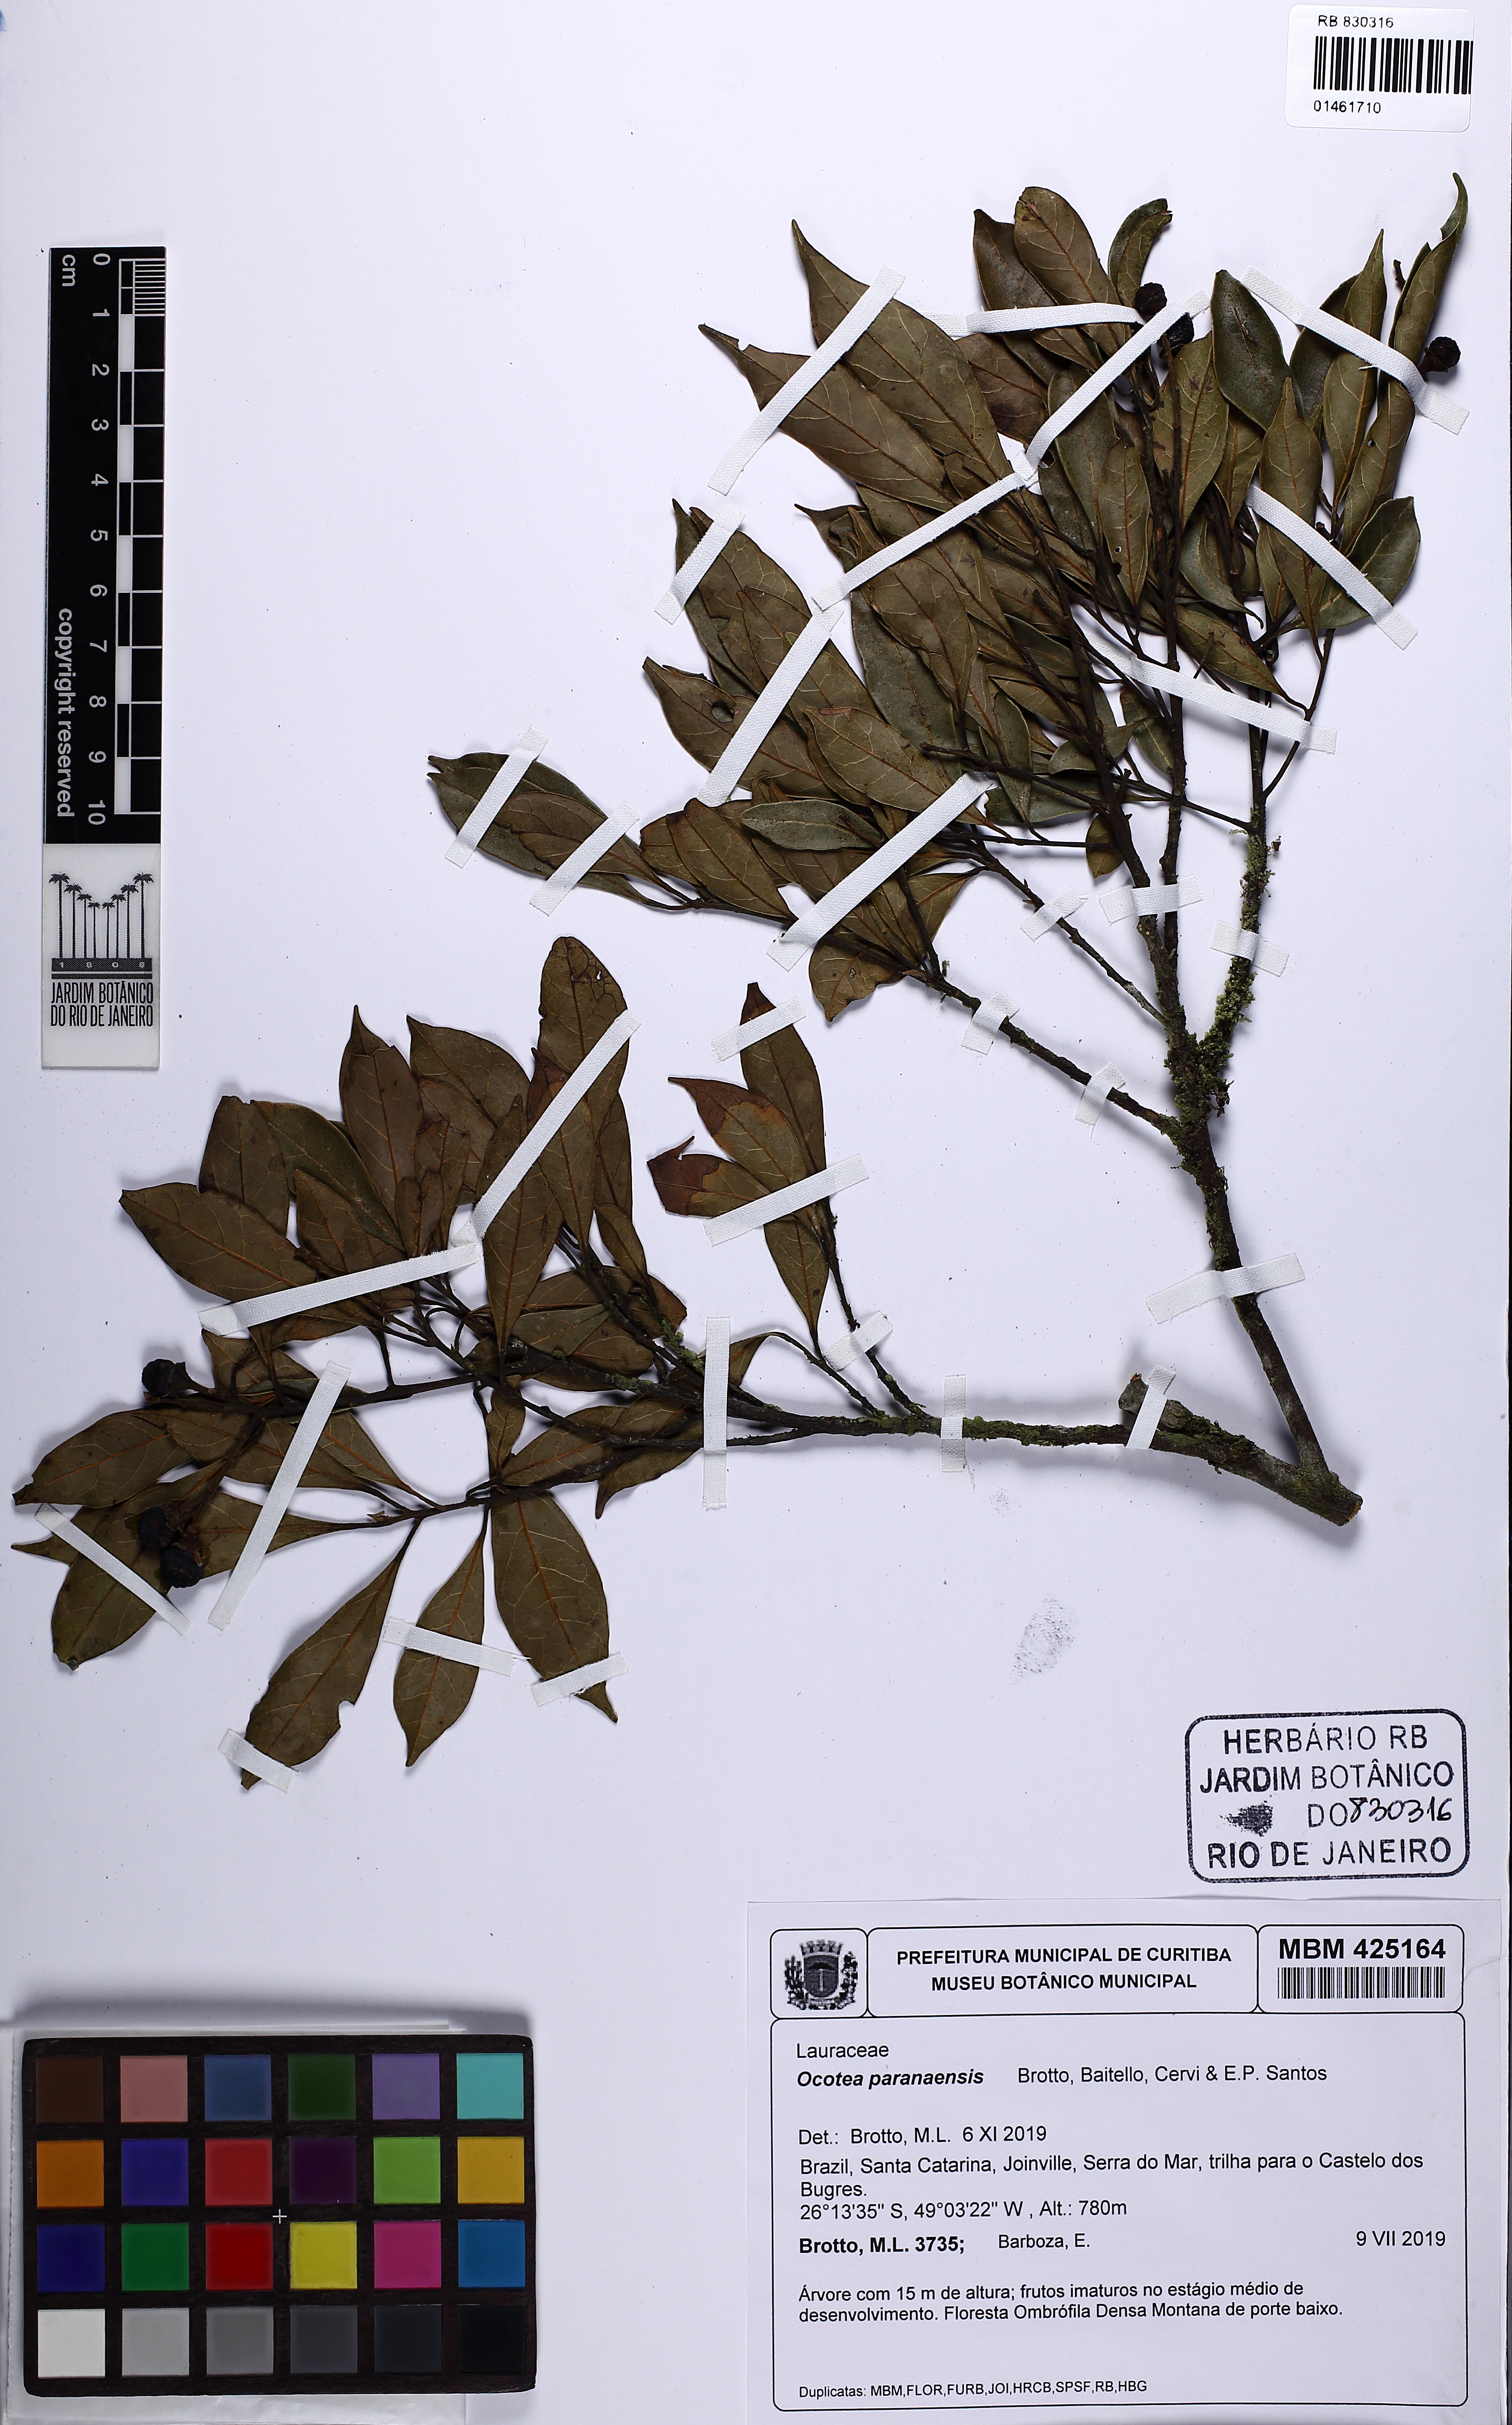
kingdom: Plantae
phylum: Tracheophyta
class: Magnoliopsida
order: Laurales
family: Lauraceae
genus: Ocotea
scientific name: Ocotea puberula
